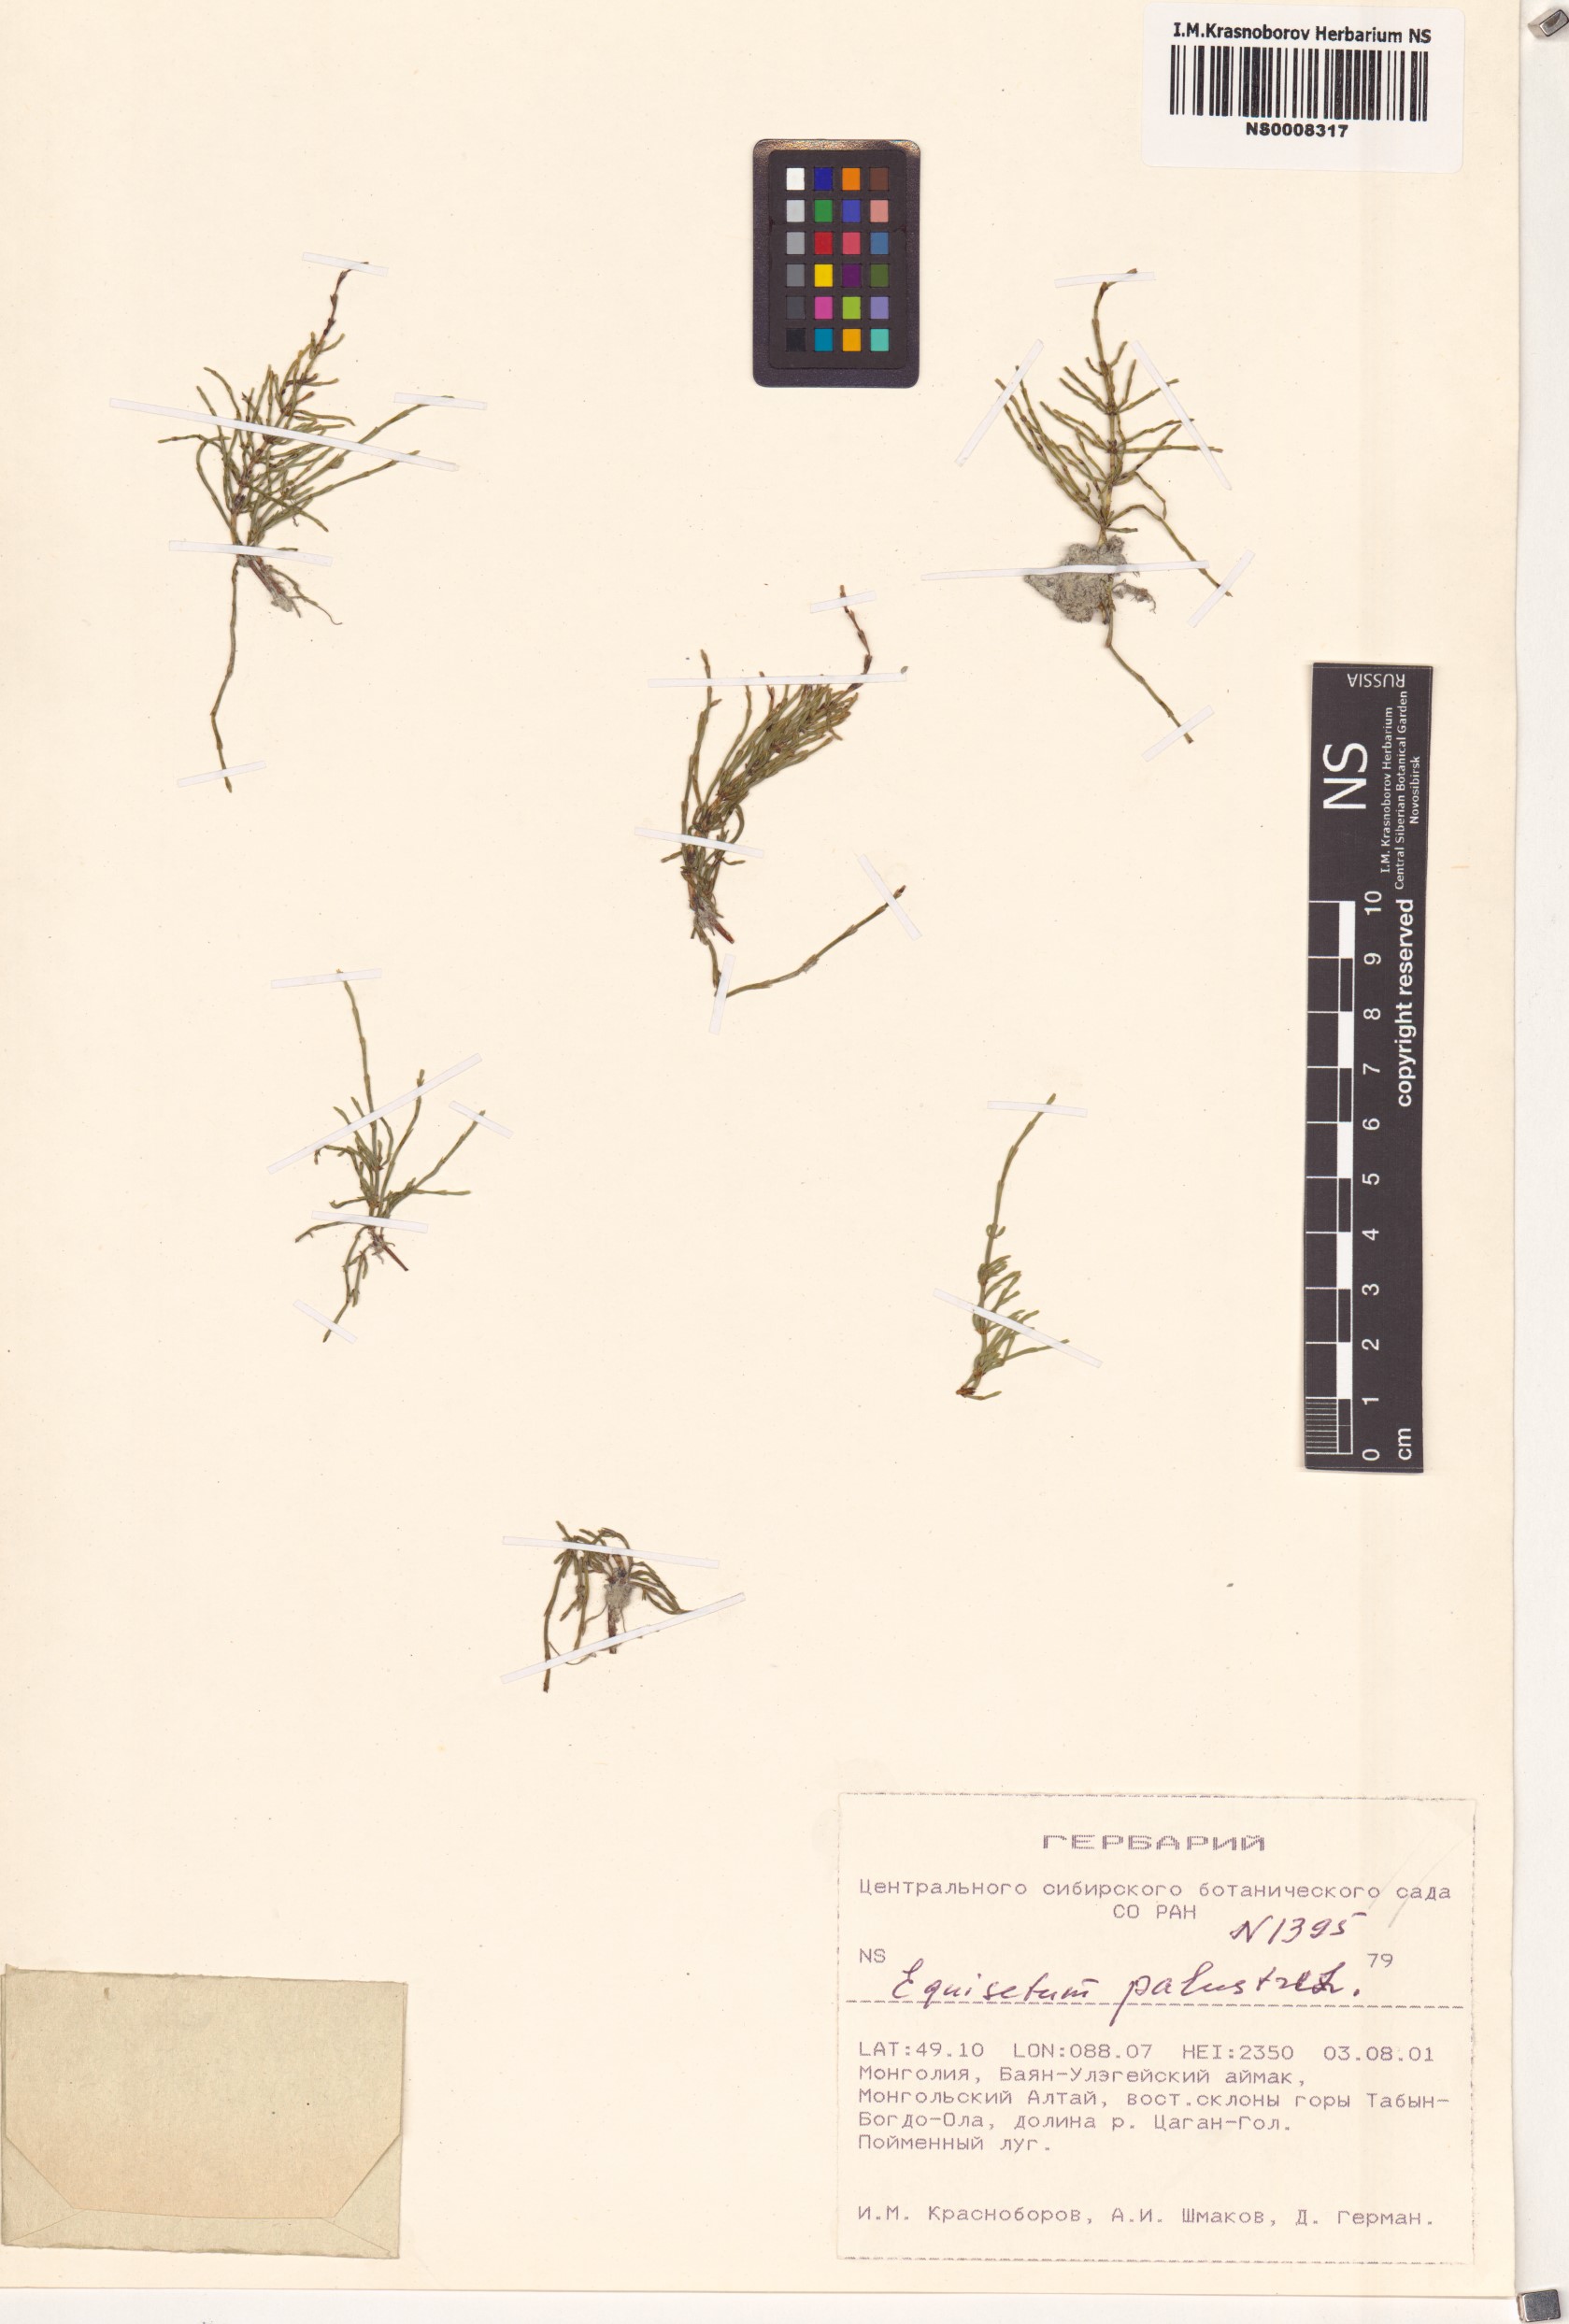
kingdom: Plantae
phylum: Tracheophyta
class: Polypodiopsida
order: Equisetales
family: Equisetaceae
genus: Equisetum
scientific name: Equisetum palustre
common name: Marsh horsetail
